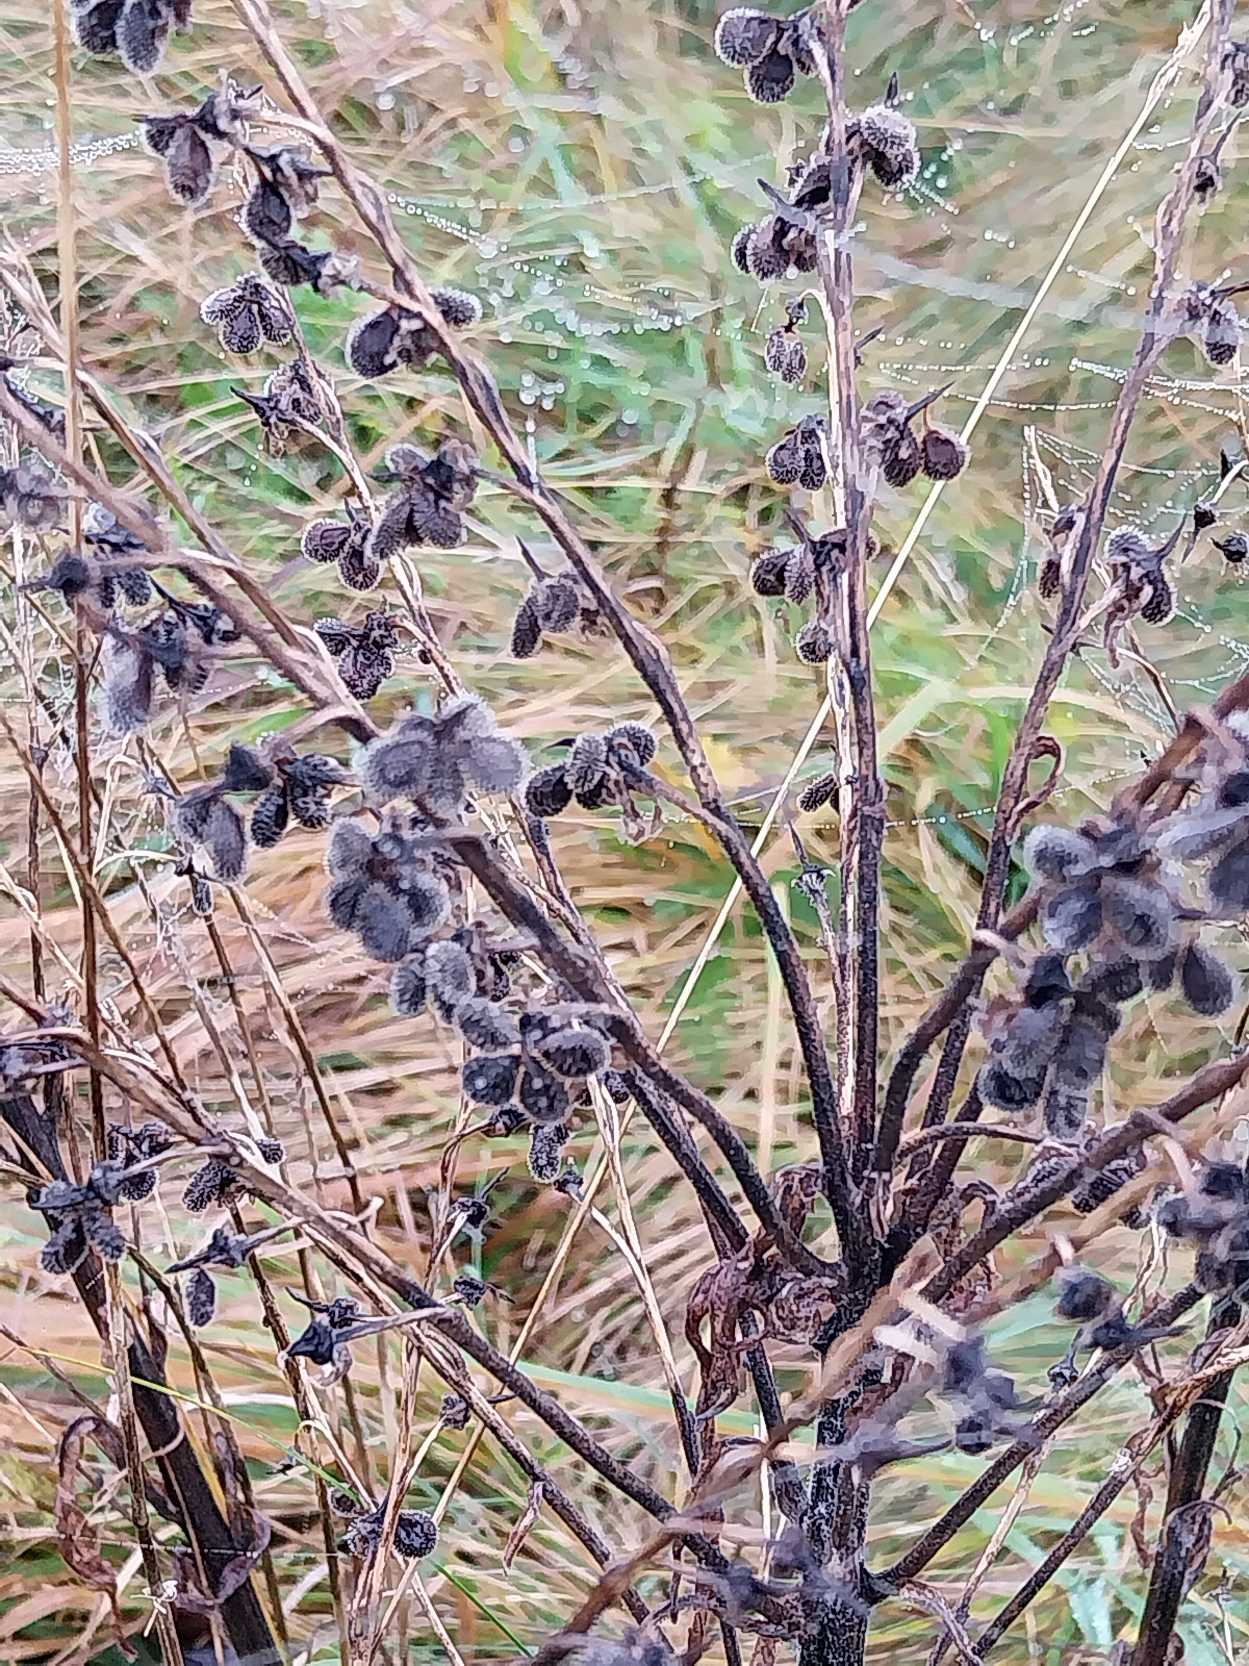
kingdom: Plantae
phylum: Tracheophyta
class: Magnoliopsida
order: Boraginales
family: Boraginaceae
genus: Cynoglossum
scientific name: Cynoglossum officinale
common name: Hundetunge
